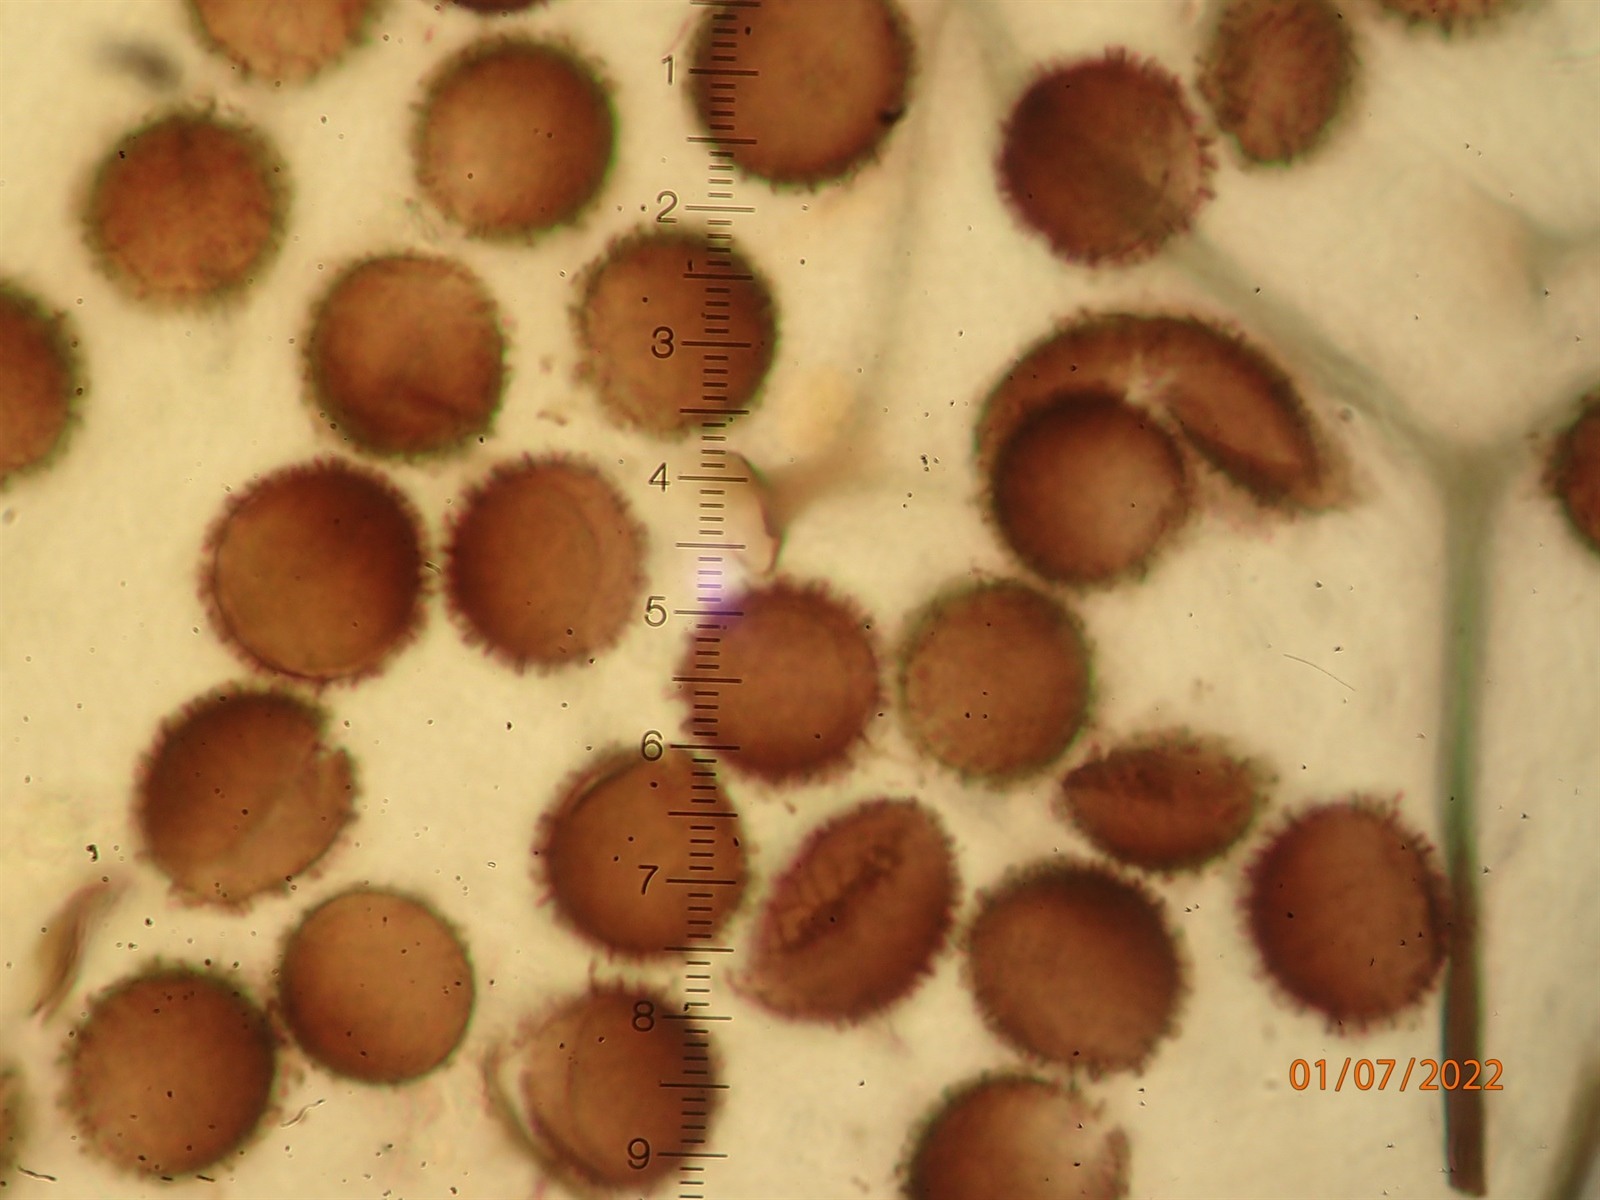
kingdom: Protozoa
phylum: Mycetozoa
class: Myxomycetes
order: Stemonitidales
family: Stemonitidaceae
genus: Meriderma
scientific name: Meriderma carestiae
